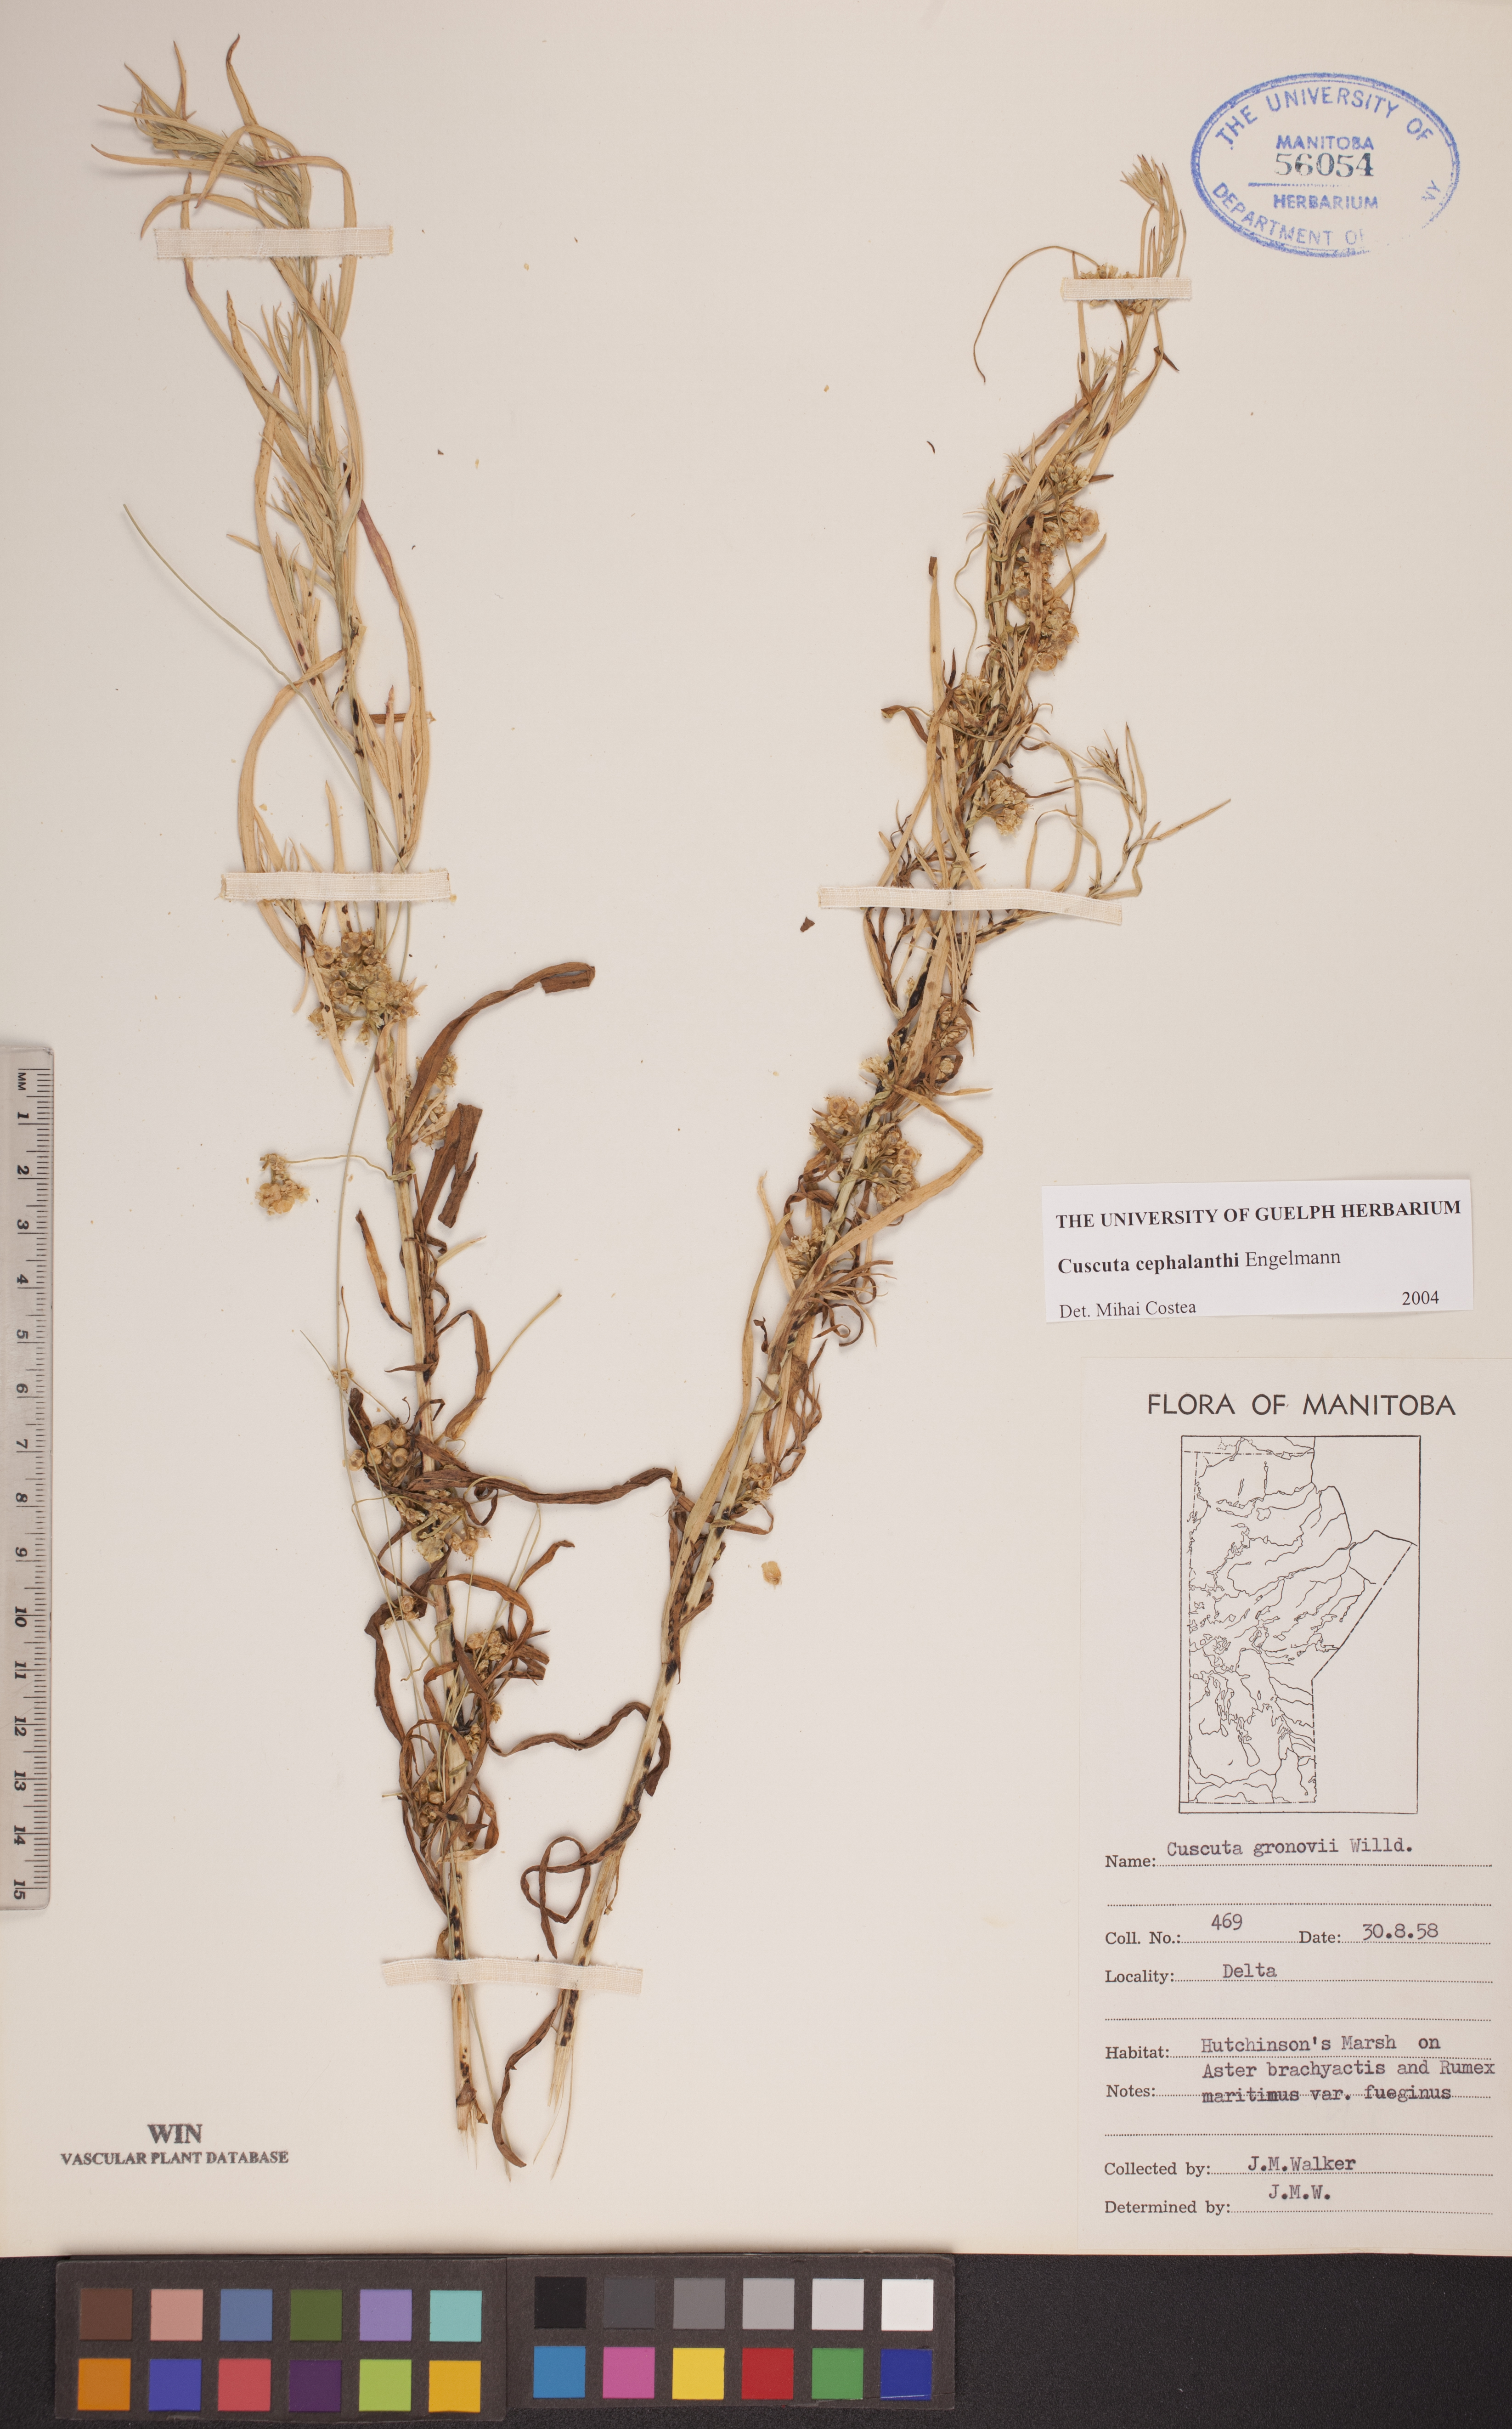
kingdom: Plantae
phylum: Tracheophyta
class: Magnoliopsida
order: Solanales
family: Convolvulaceae
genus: Cuscuta
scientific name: Cuscuta cephalanthi
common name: Button dodder
